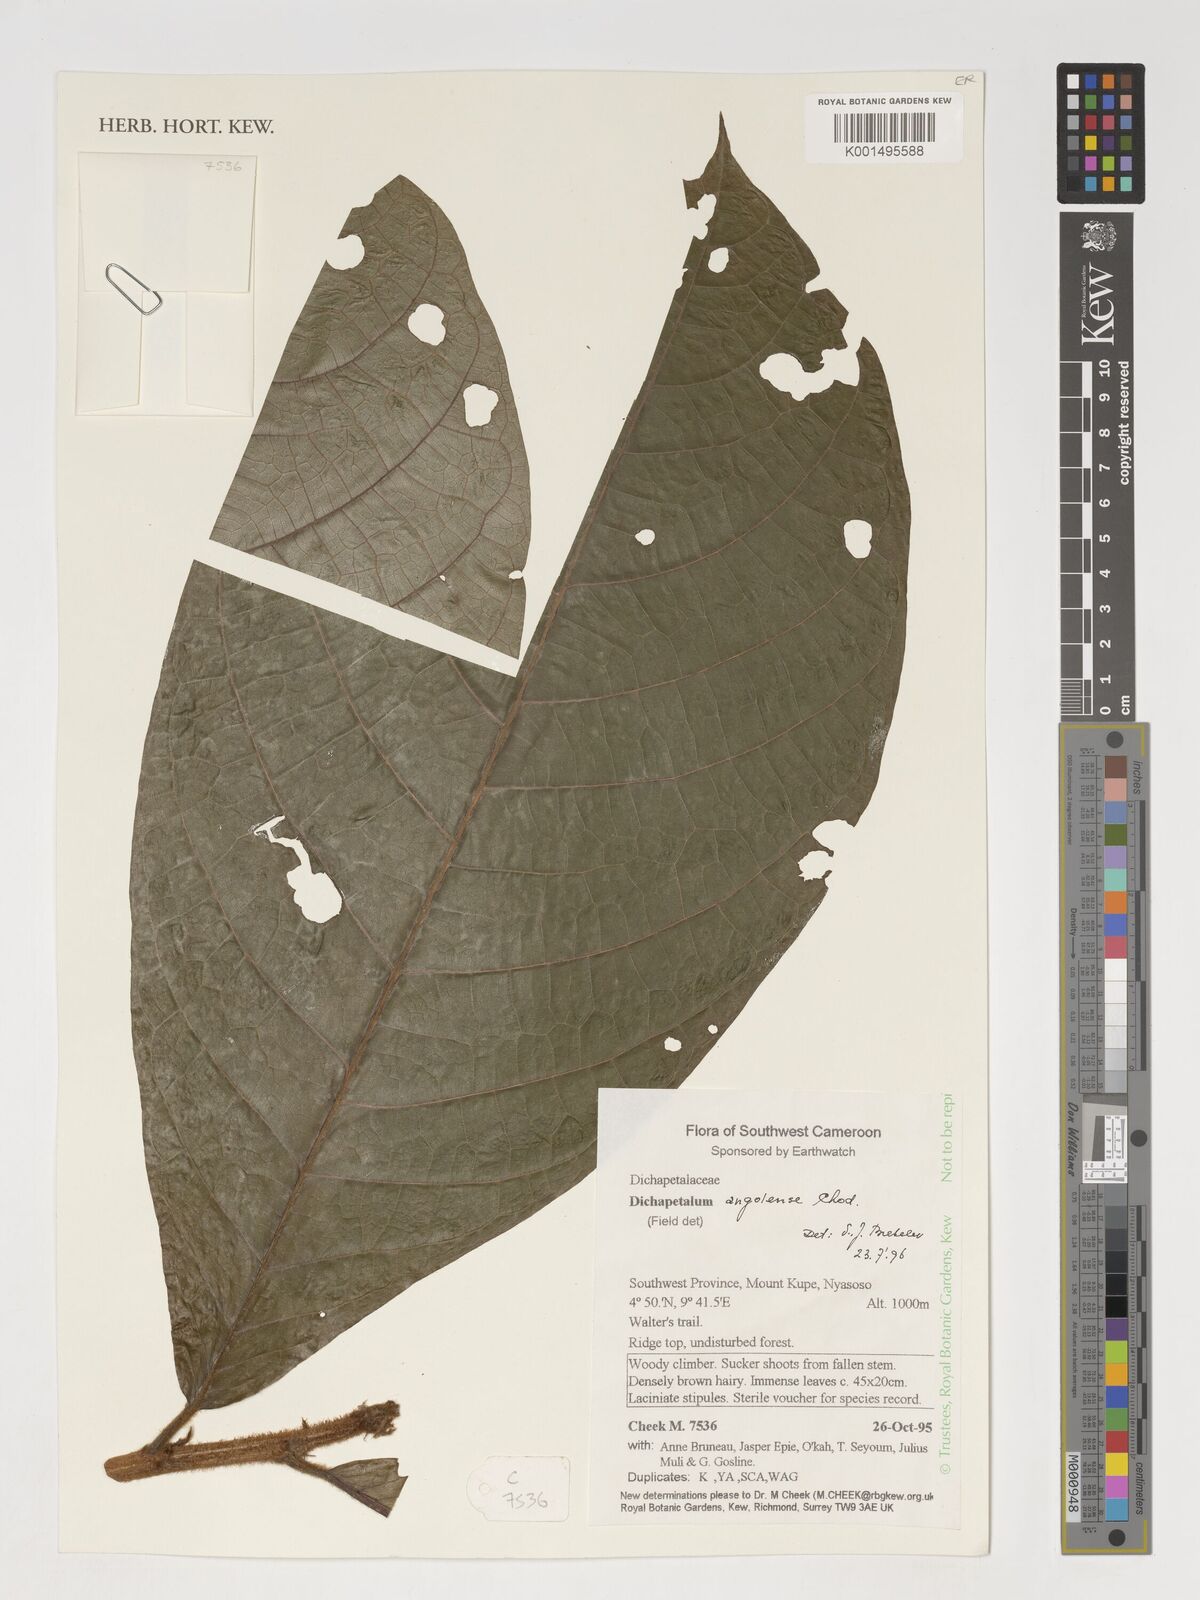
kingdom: Plantae
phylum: Tracheophyta
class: Magnoliopsida
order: Malpighiales
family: Dichapetalaceae
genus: Dichapetalum
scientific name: Dichapetalum angolense
